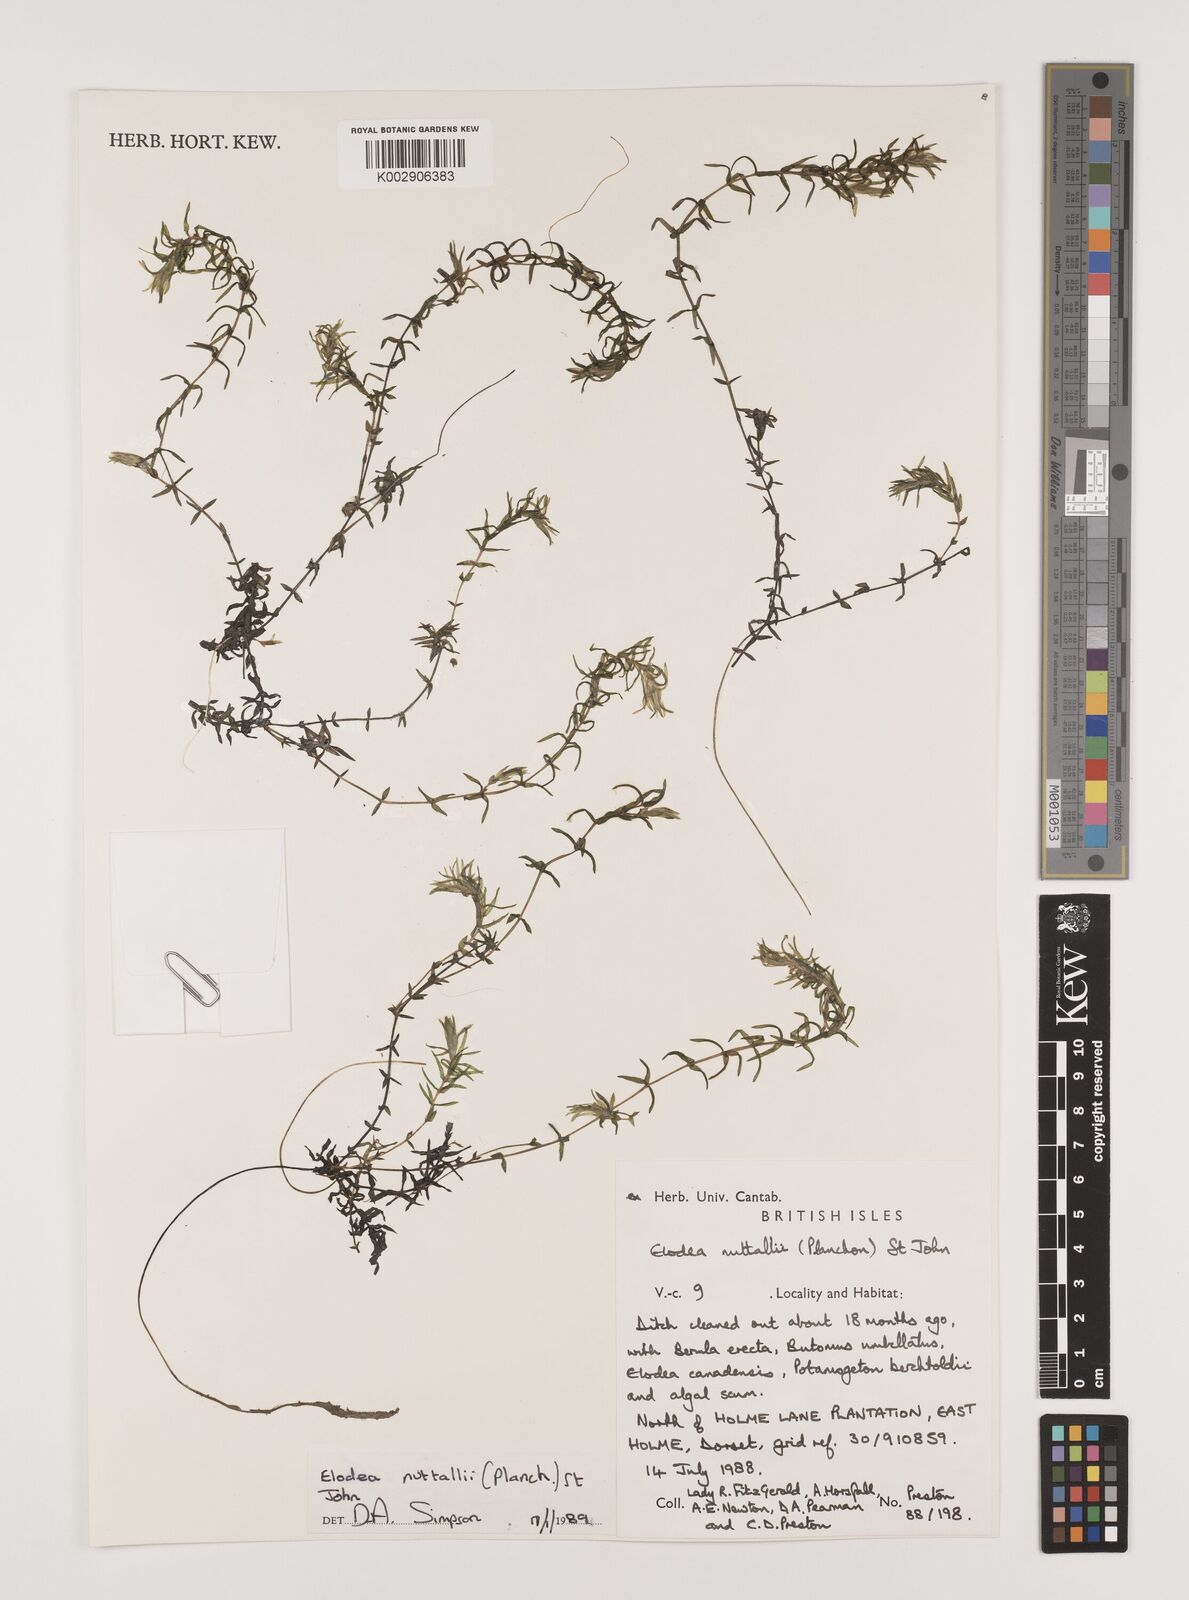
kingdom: Plantae
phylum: Tracheophyta
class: Liliopsida
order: Alismatales
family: Hydrocharitaceae
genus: Elodea
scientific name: Elodea nuttallii
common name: Nuttall's waterweed
